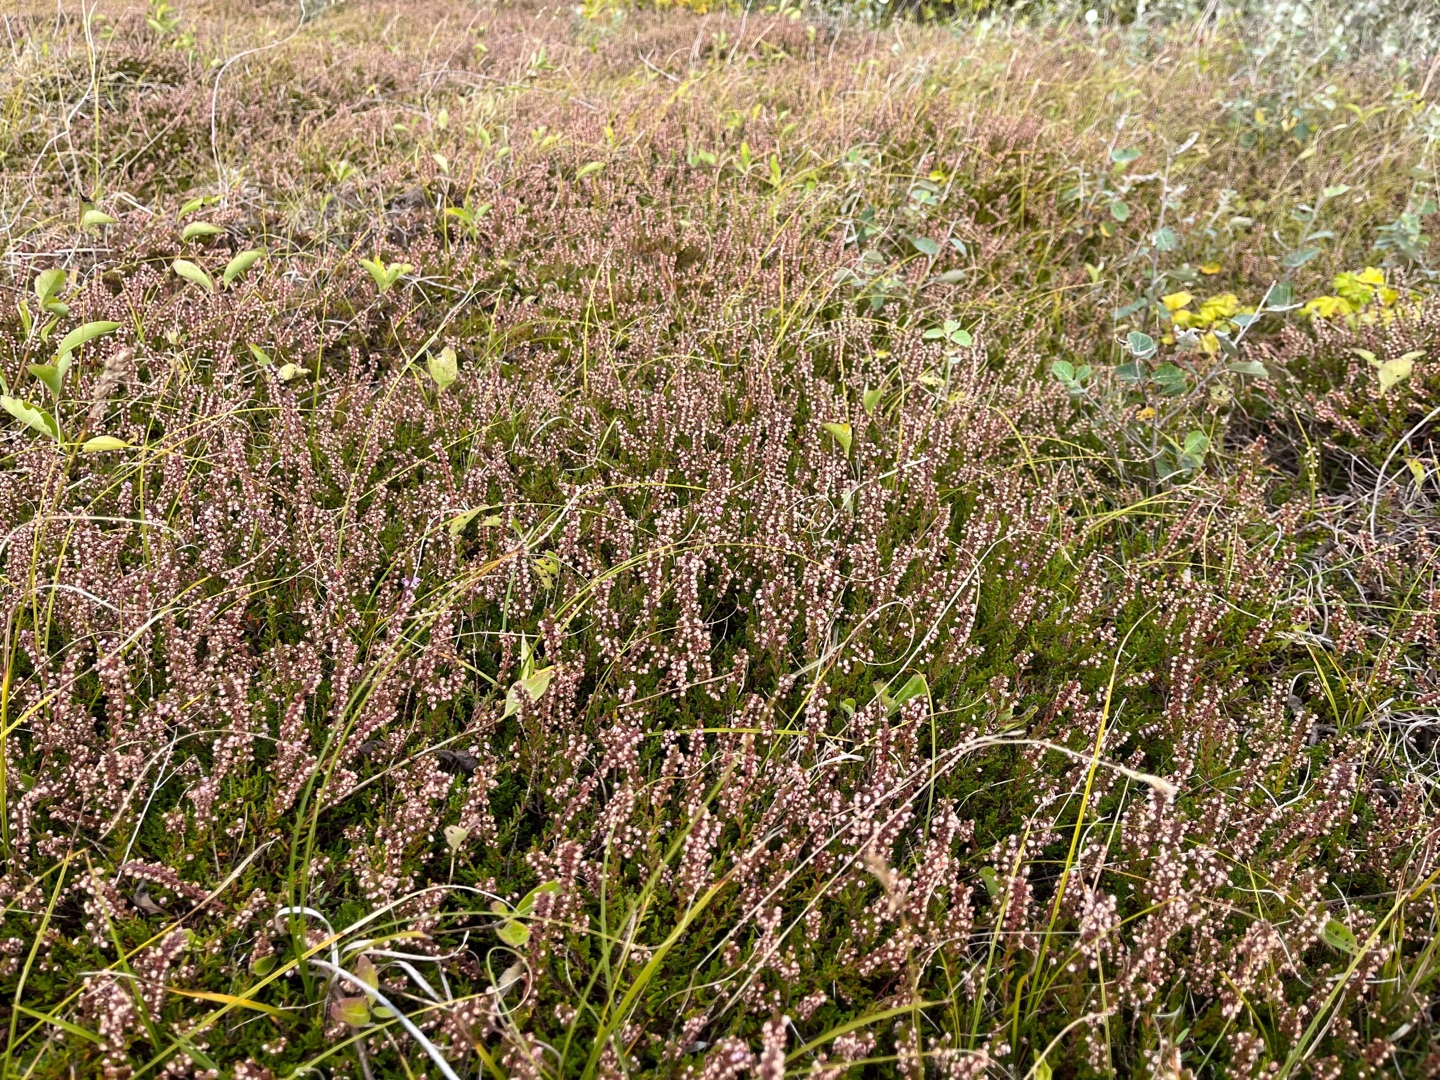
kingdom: Plantae
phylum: Tracheophyta
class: Magnoliopsida
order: Ericales
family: Ericaceae
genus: Calluna
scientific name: Calluna vulgaris
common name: Hedelyng
